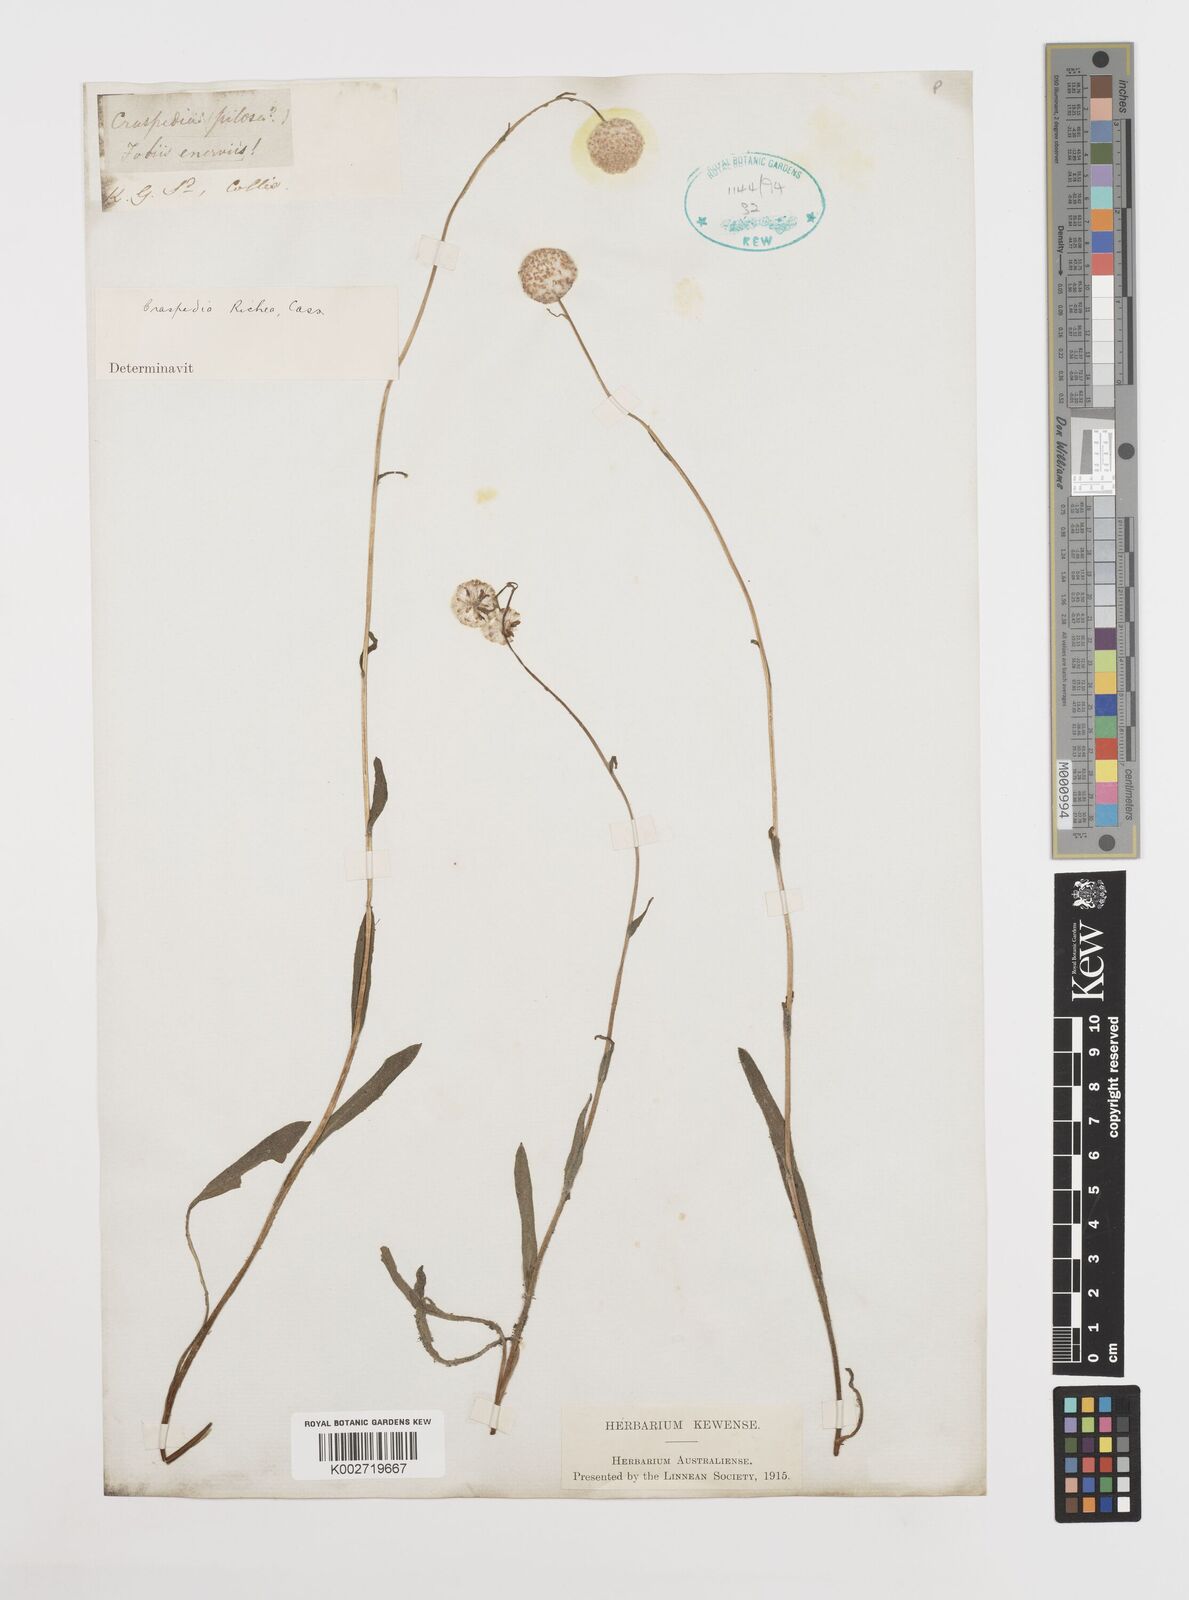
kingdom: Plantae
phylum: Tracheophyta
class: Magnoliopsida
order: Asterales
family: Asteraceae
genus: Craspedia
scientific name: Craspedia glauca
